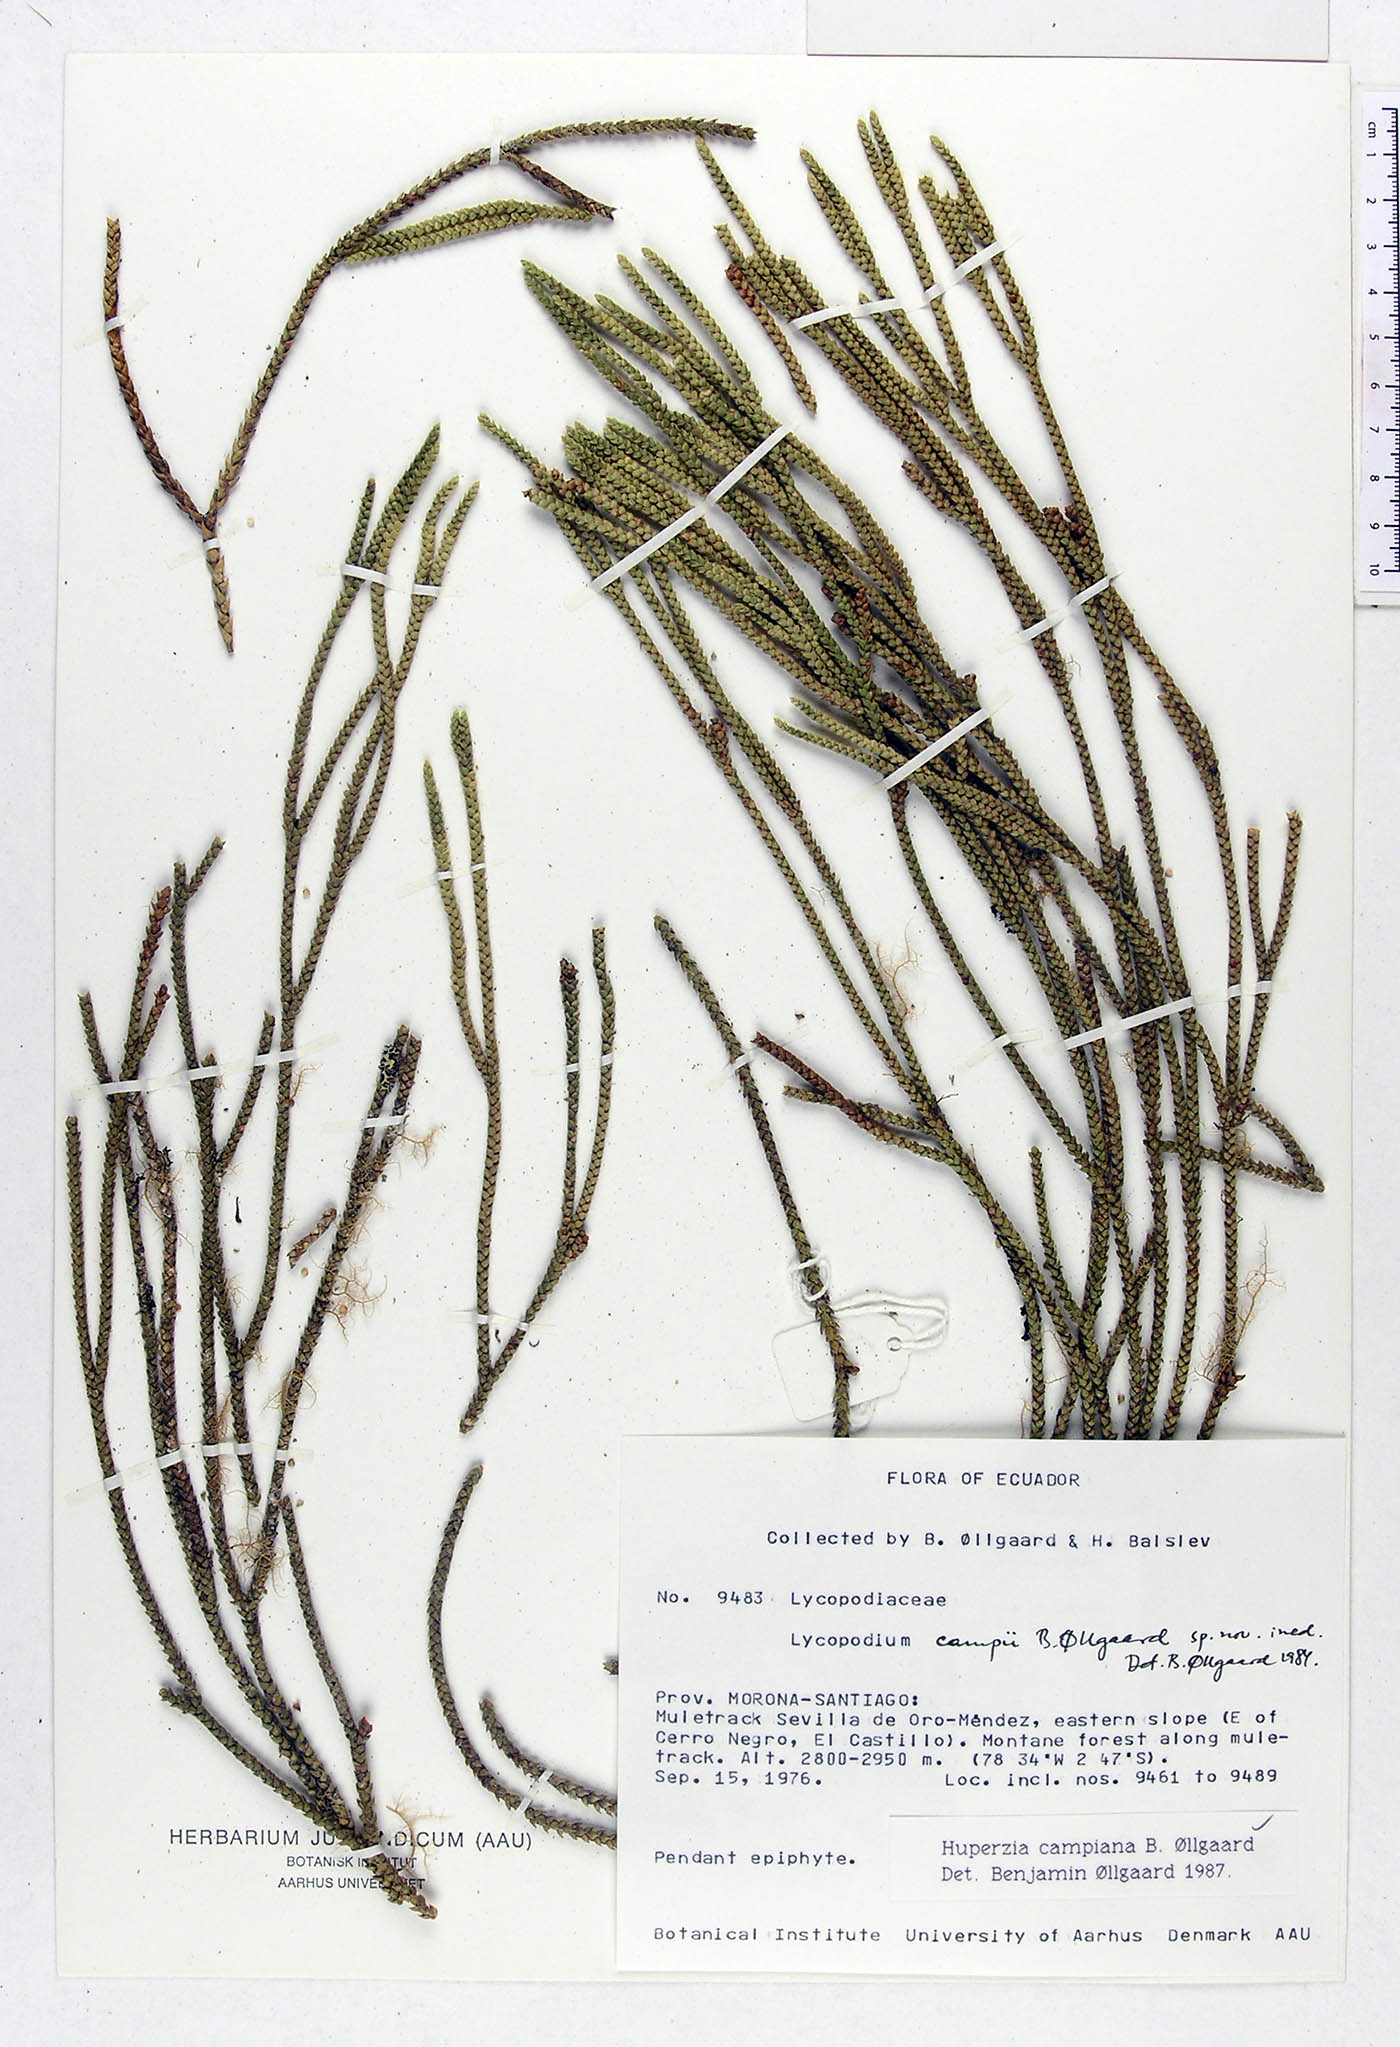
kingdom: Plantae
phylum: Tracheophyta
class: Lycopodiopsida
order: Lycopodiales
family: Lycopodiaceae
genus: Phlegmariurus
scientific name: Phlegmariurus campianus
